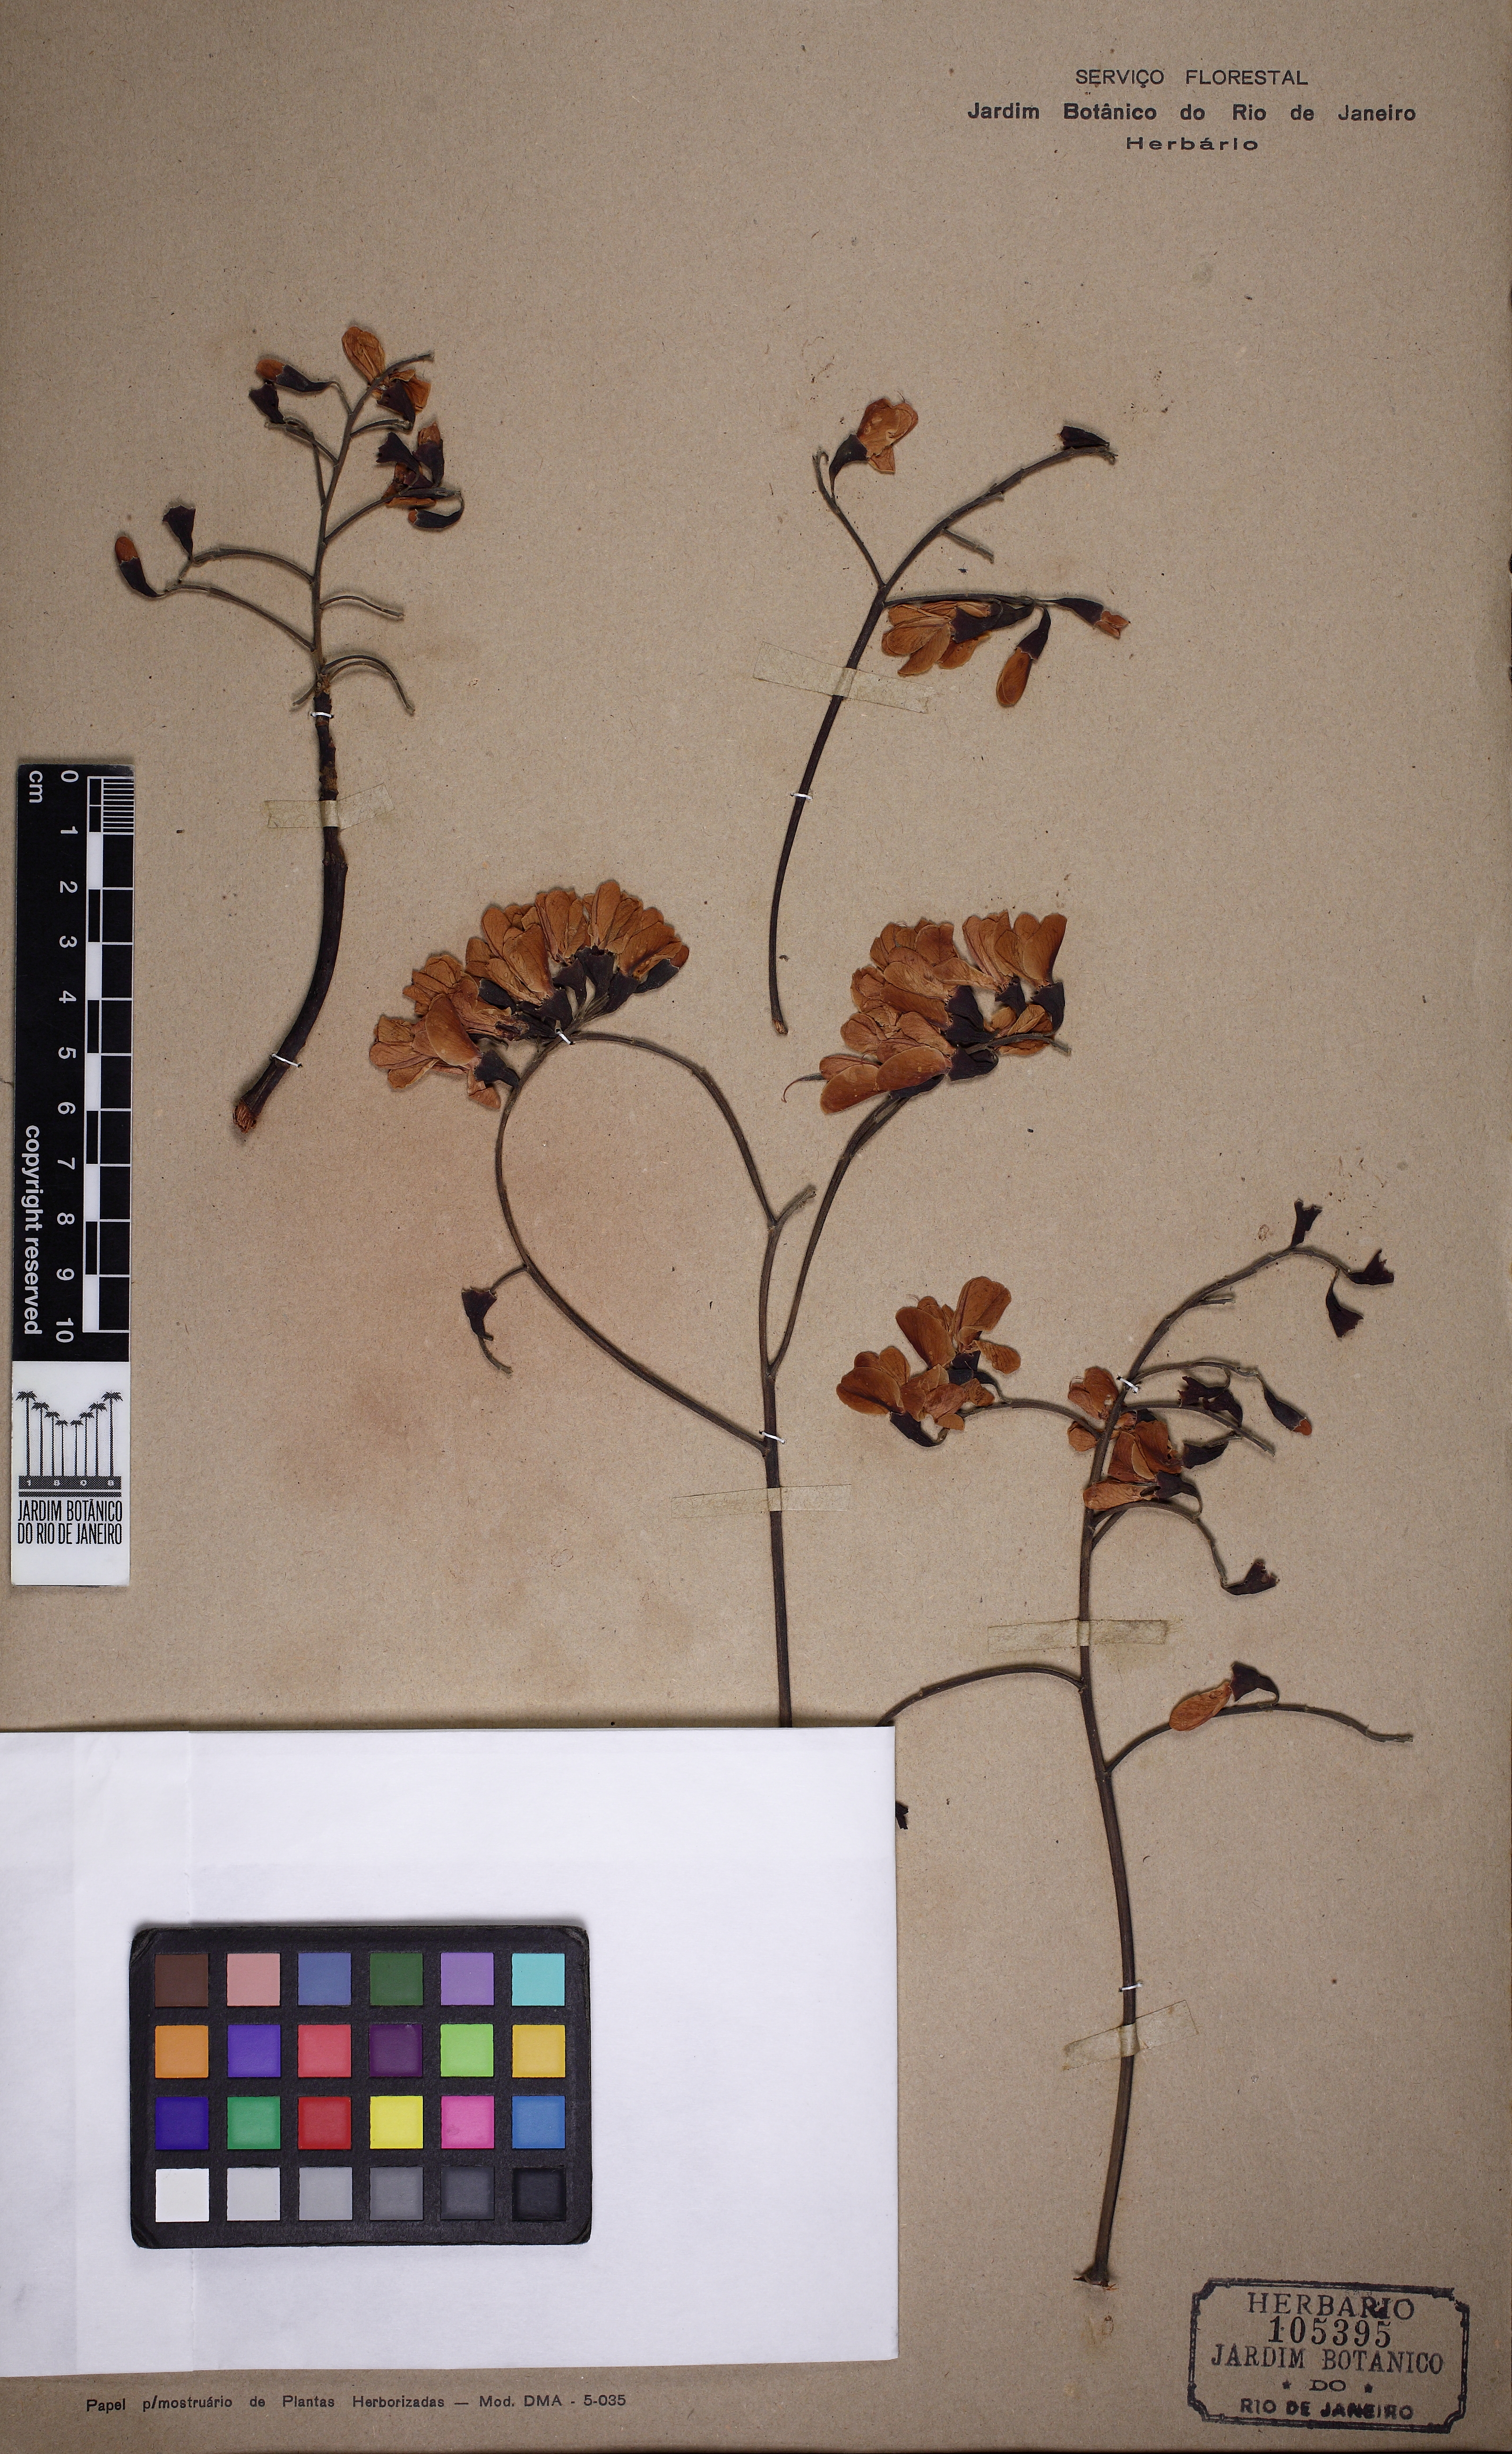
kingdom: Plantae
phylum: Tracheophyta
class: Magnoliopsida
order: Fabales
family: Fabaceae
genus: Vatairea
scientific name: Vatairea macrocarpa
